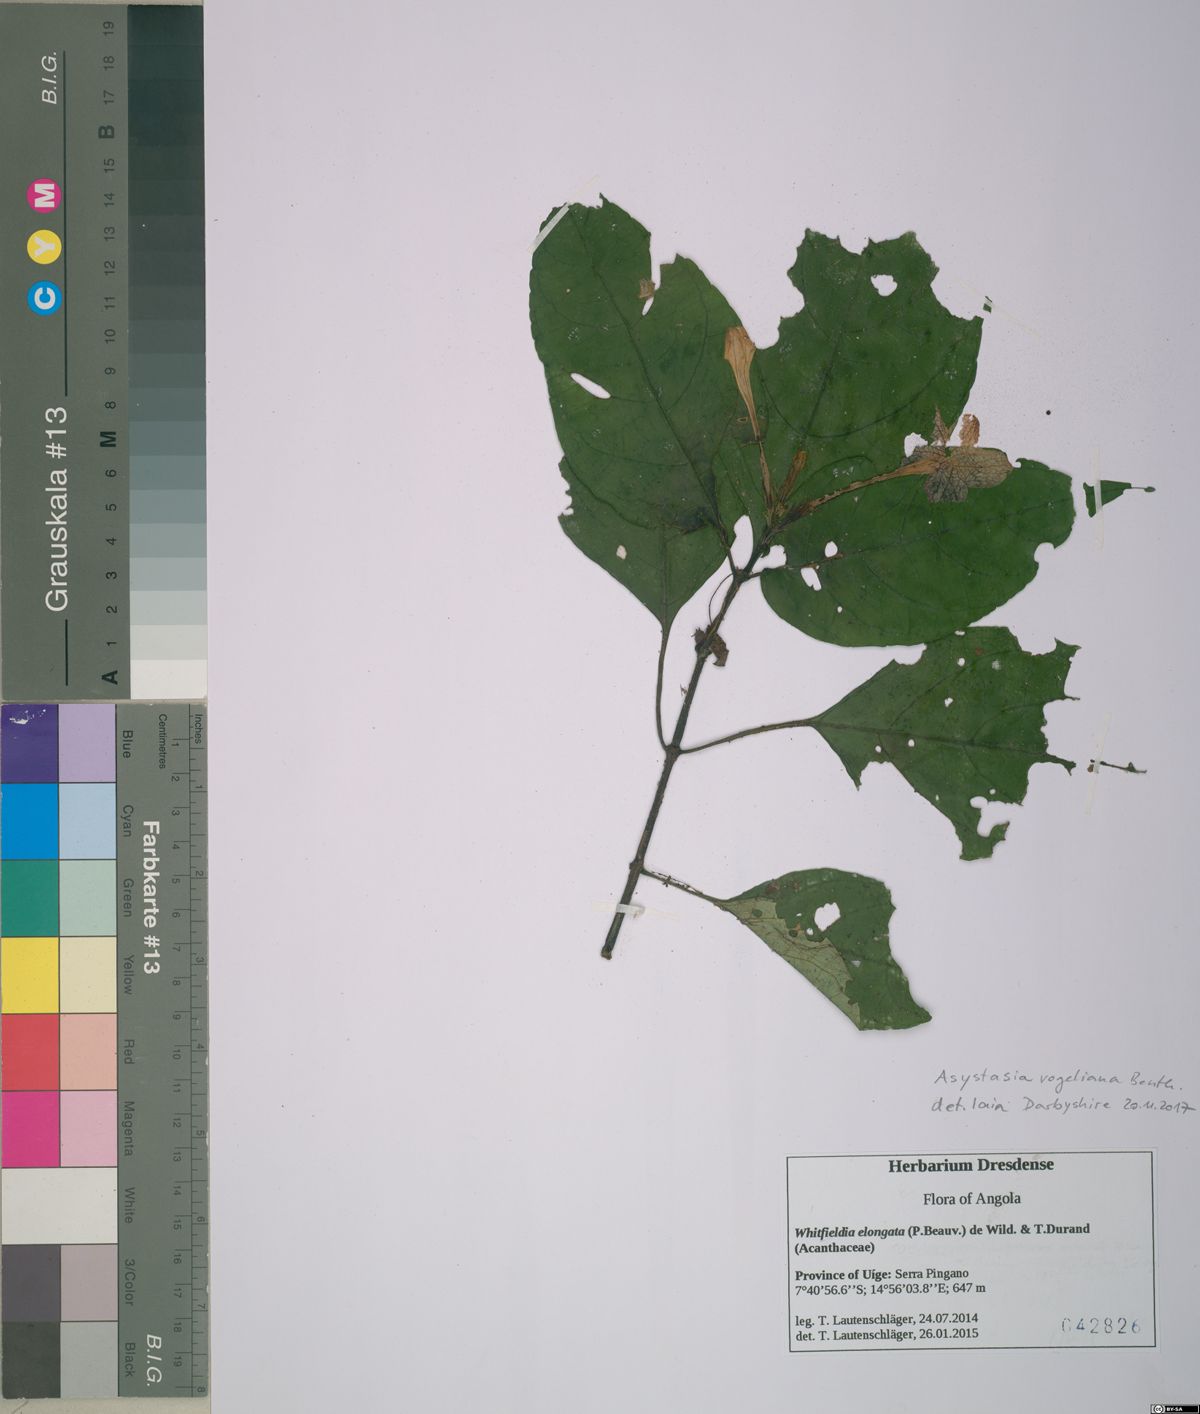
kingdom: Plantae
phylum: Tracheophyta
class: Magnoliopsida
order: Lamiales
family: Acanthaceae
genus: Asystasia
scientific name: Asystasia vogeliana
